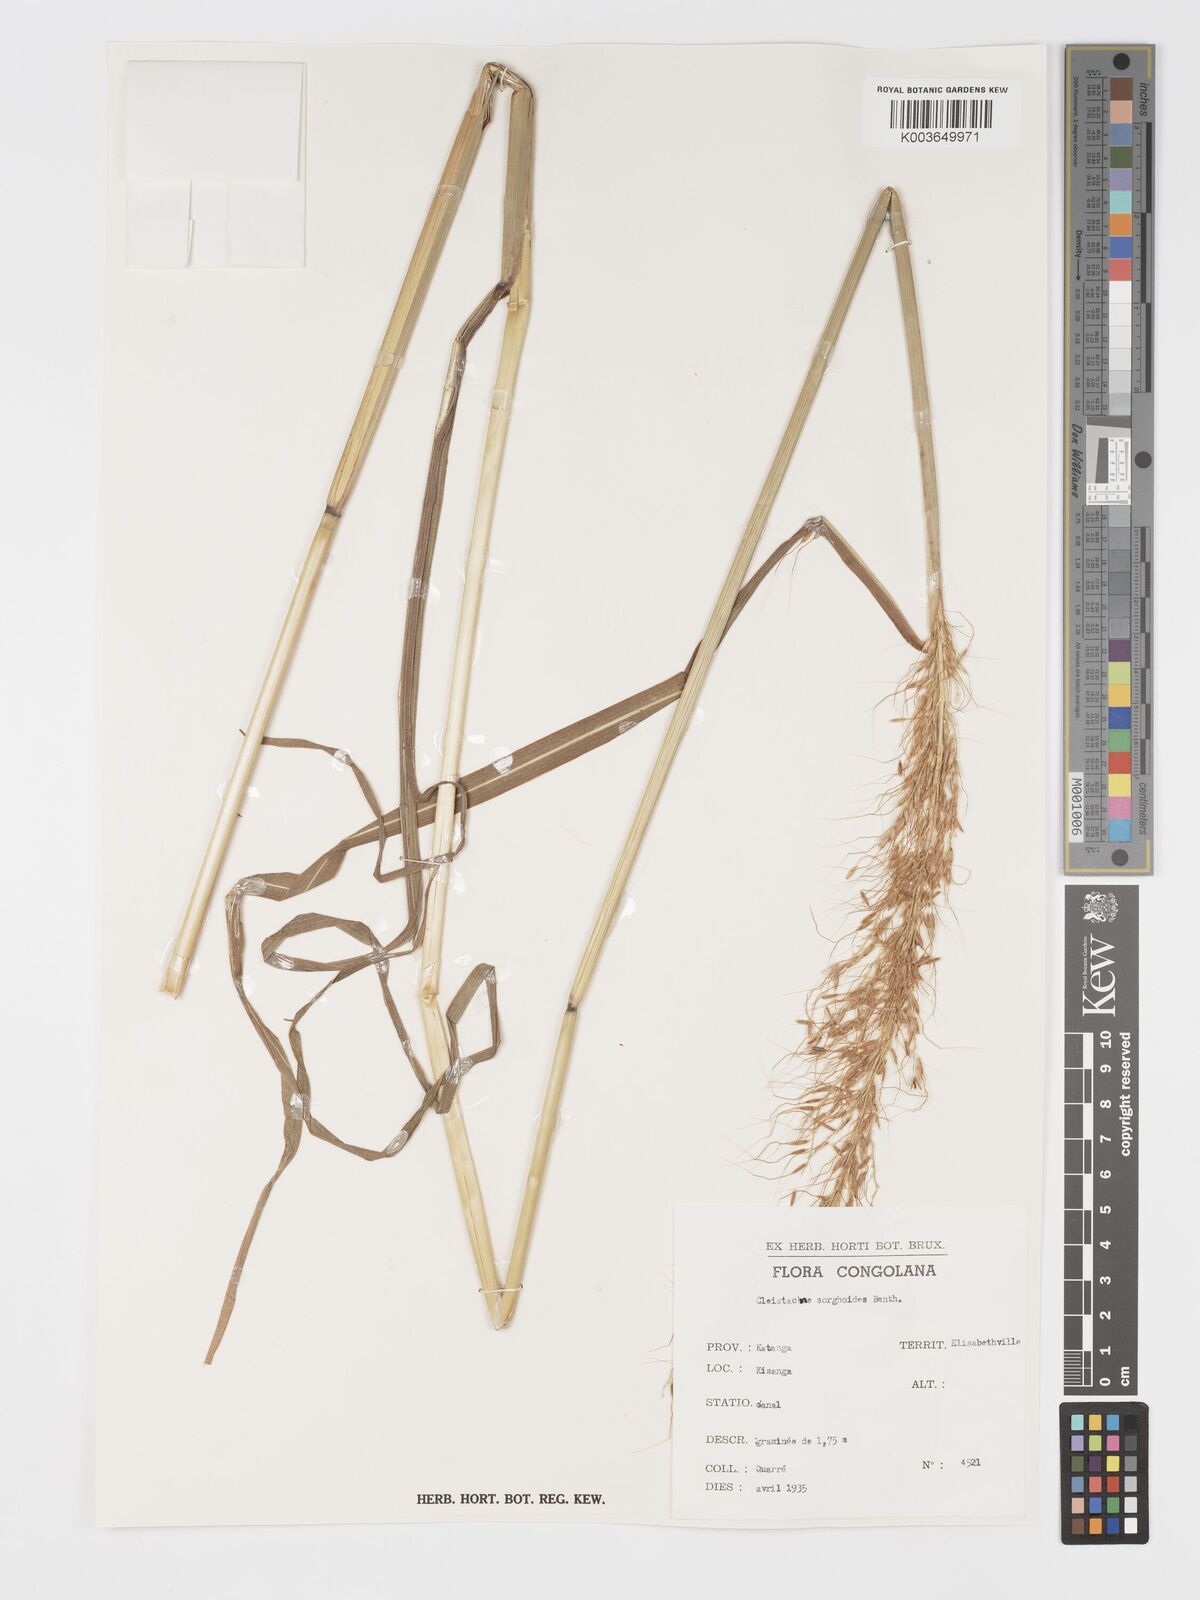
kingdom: Plantae
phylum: Tracheophyta
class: Liliopsida
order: Poales
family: Poaceae
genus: Cleistachne
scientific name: Cleistachne sorghoides
